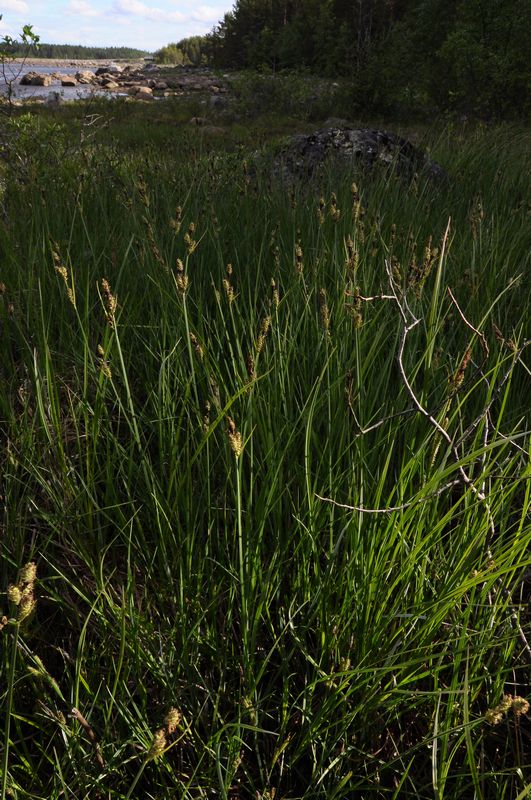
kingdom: Plantae
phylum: Tracheophyta
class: Liliopsida
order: Poales
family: Cyperaceae
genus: Carex
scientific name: Carex buxbaumii
